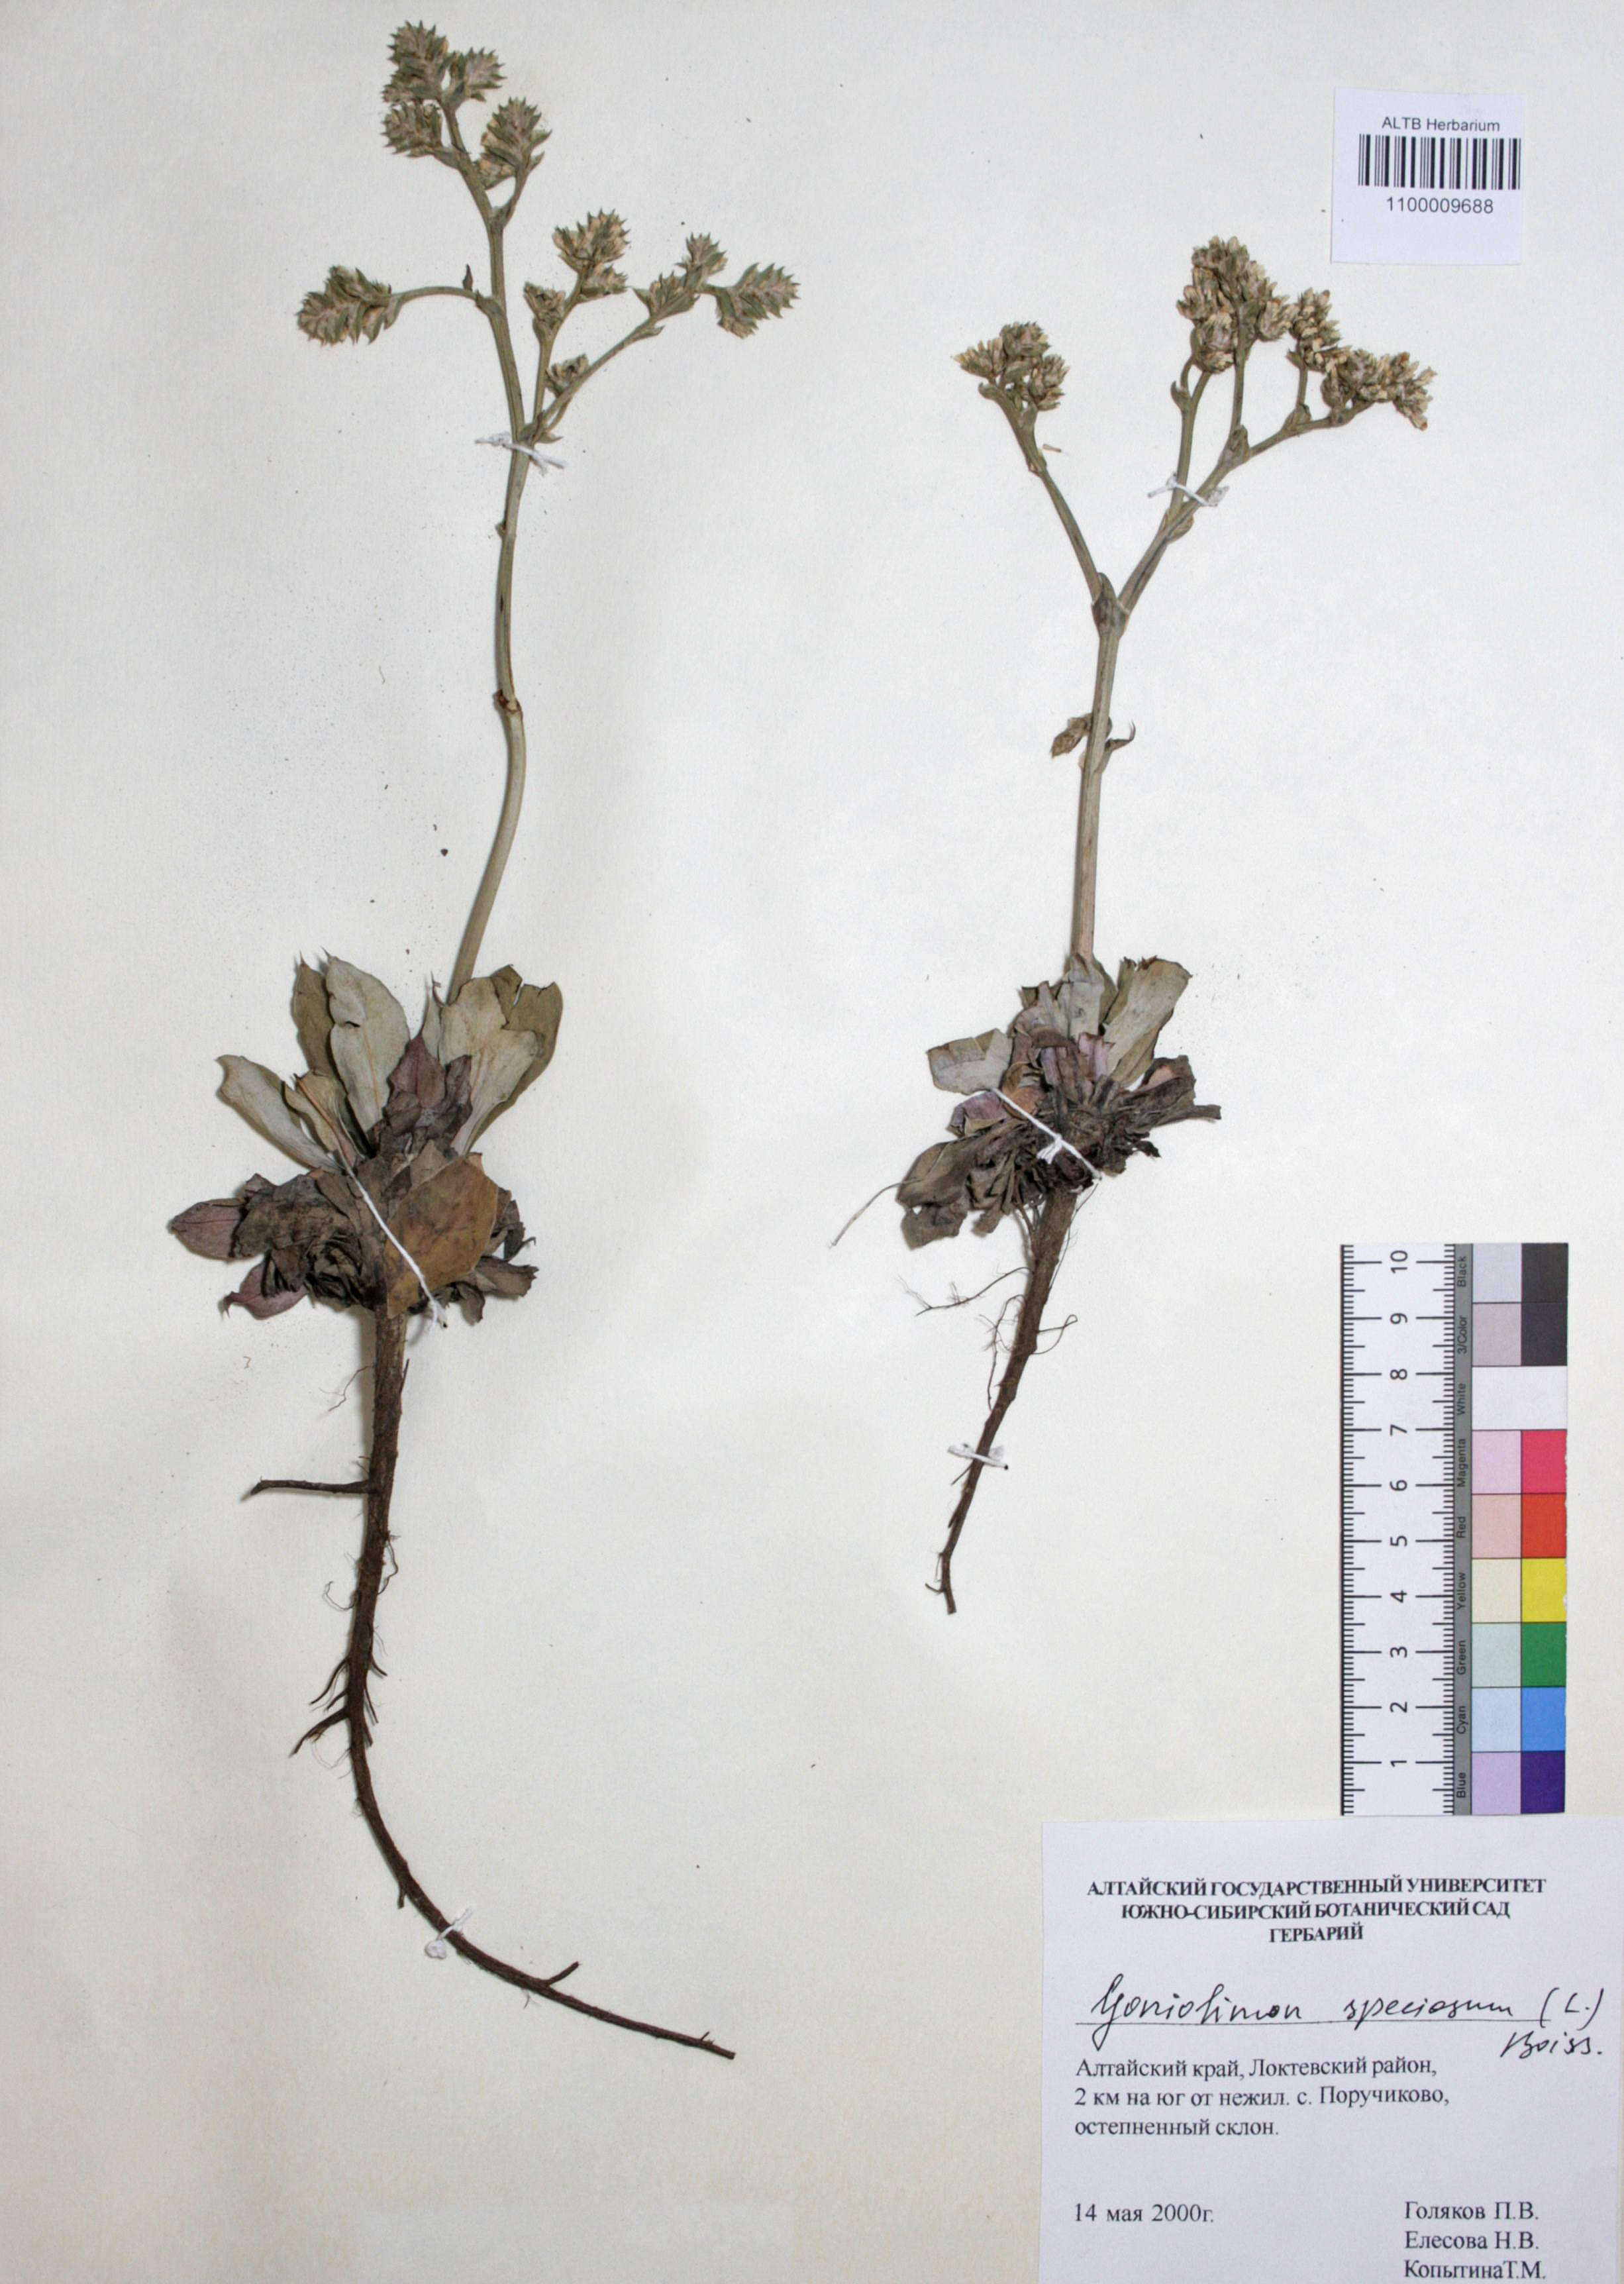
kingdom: Plantae
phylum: Tracheophyta
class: Magnoliopsida
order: Caryophyllales
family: Plumbaginaceae
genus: Goniolimon
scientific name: Goniolimon speciosum
